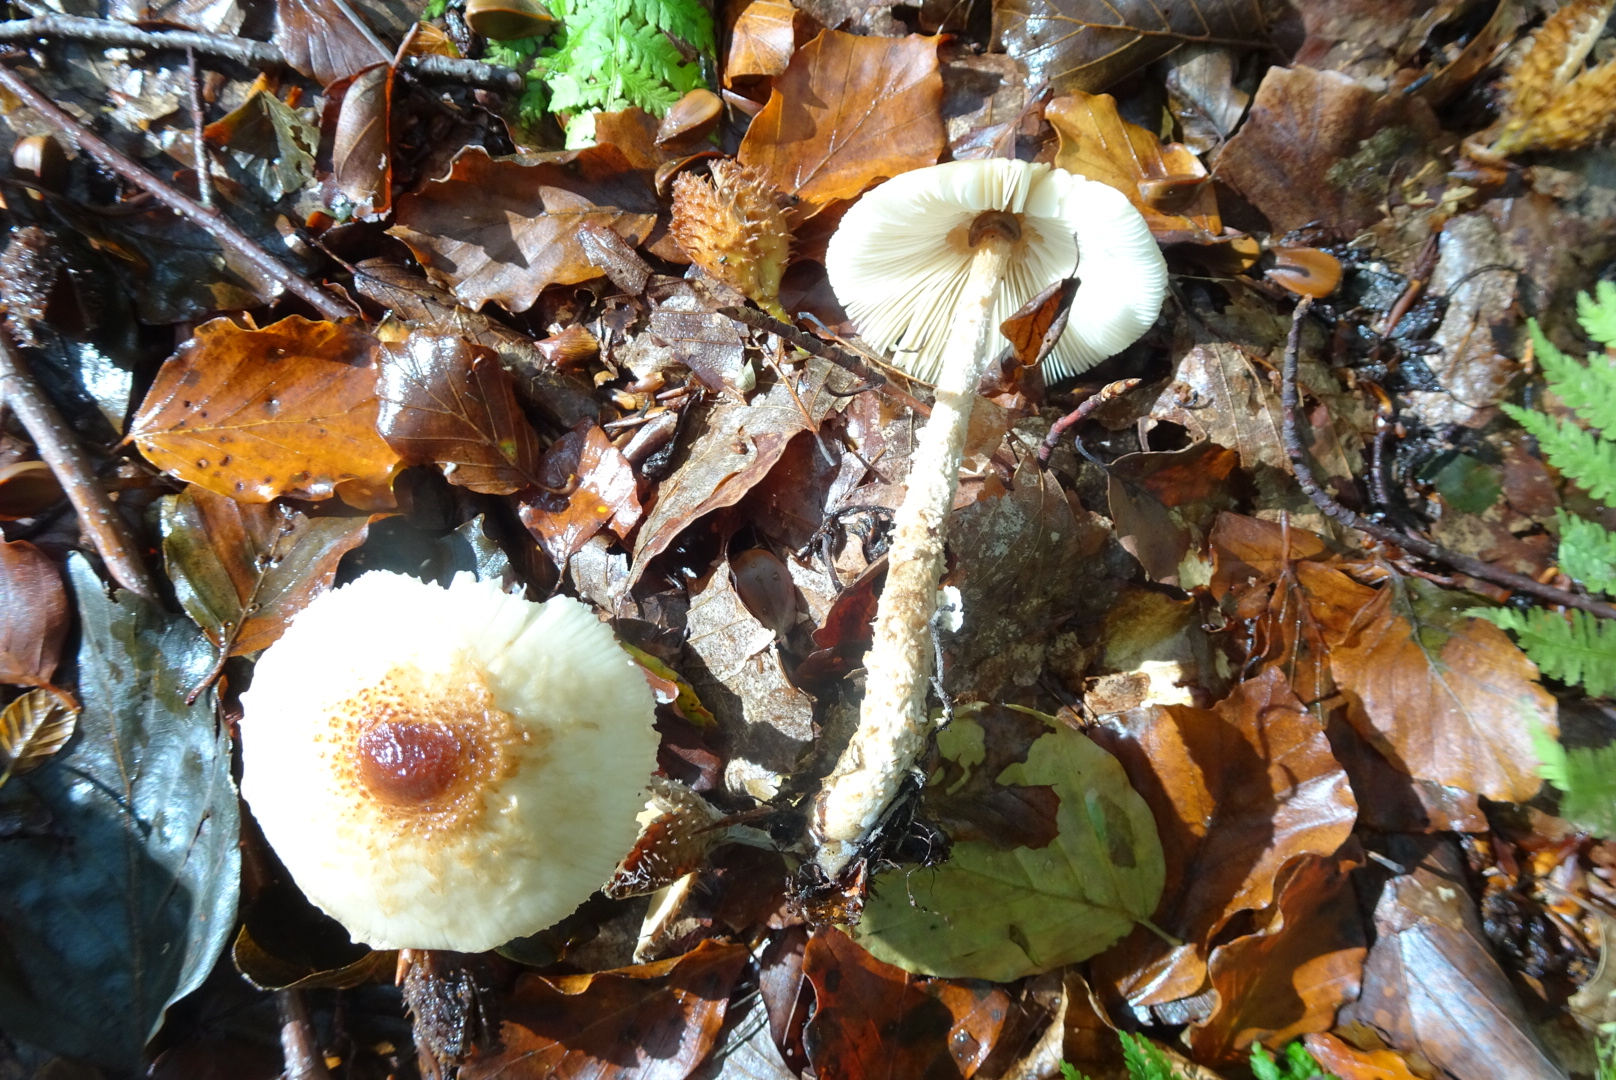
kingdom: Fungi
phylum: Basidiomycota
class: Agaricomycetes
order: Agaricales
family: Agaricaceae
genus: Lepiota
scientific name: Lepiota magnispora
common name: gulfnugget parasolhat
